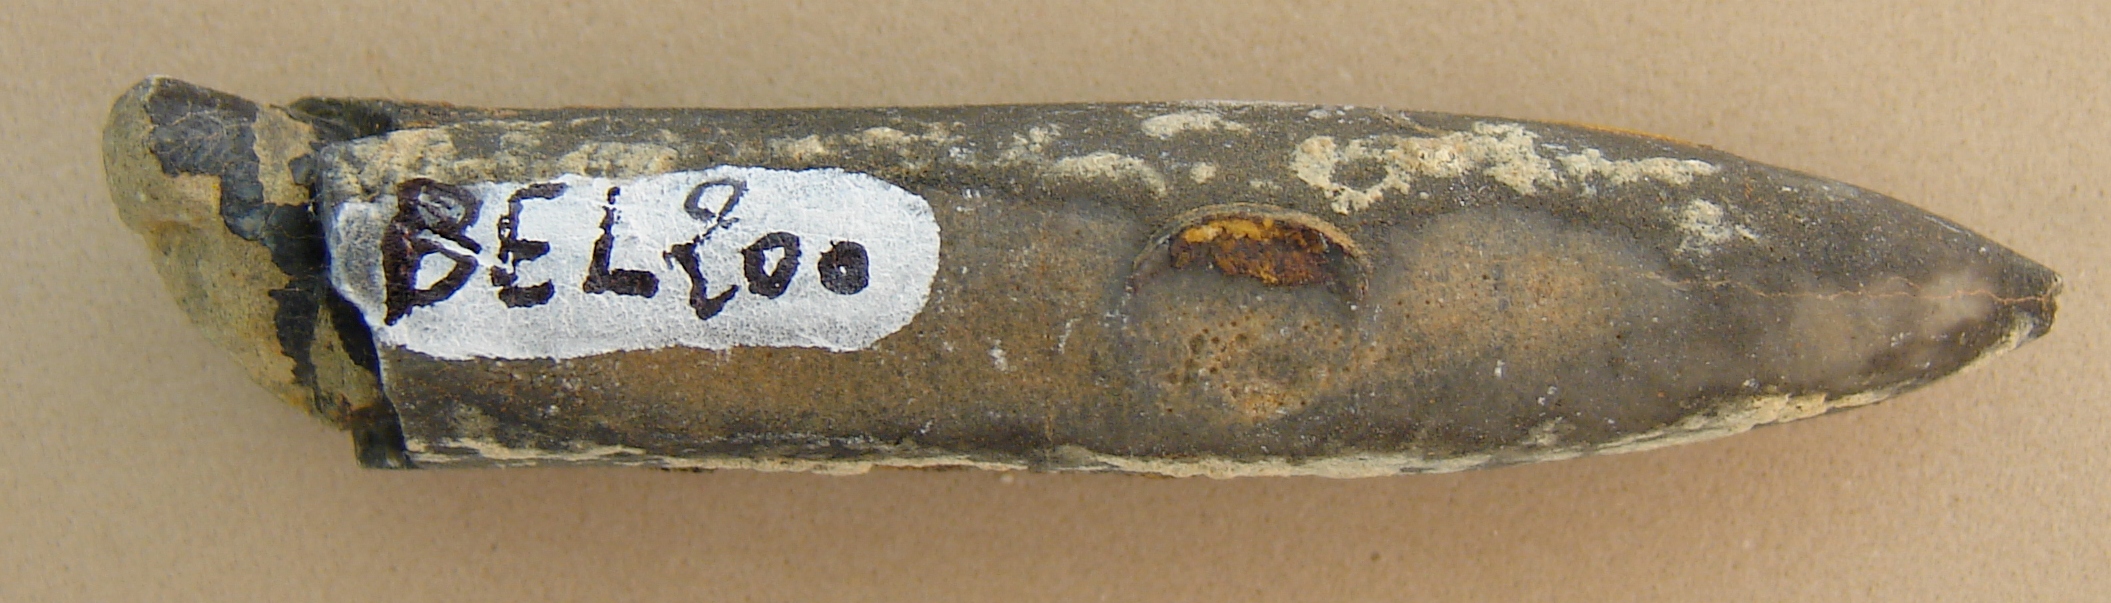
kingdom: Animalia
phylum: Mollusca
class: Cephalopoda
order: Belemnitida
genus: Holcobelus
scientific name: Holcobelus
